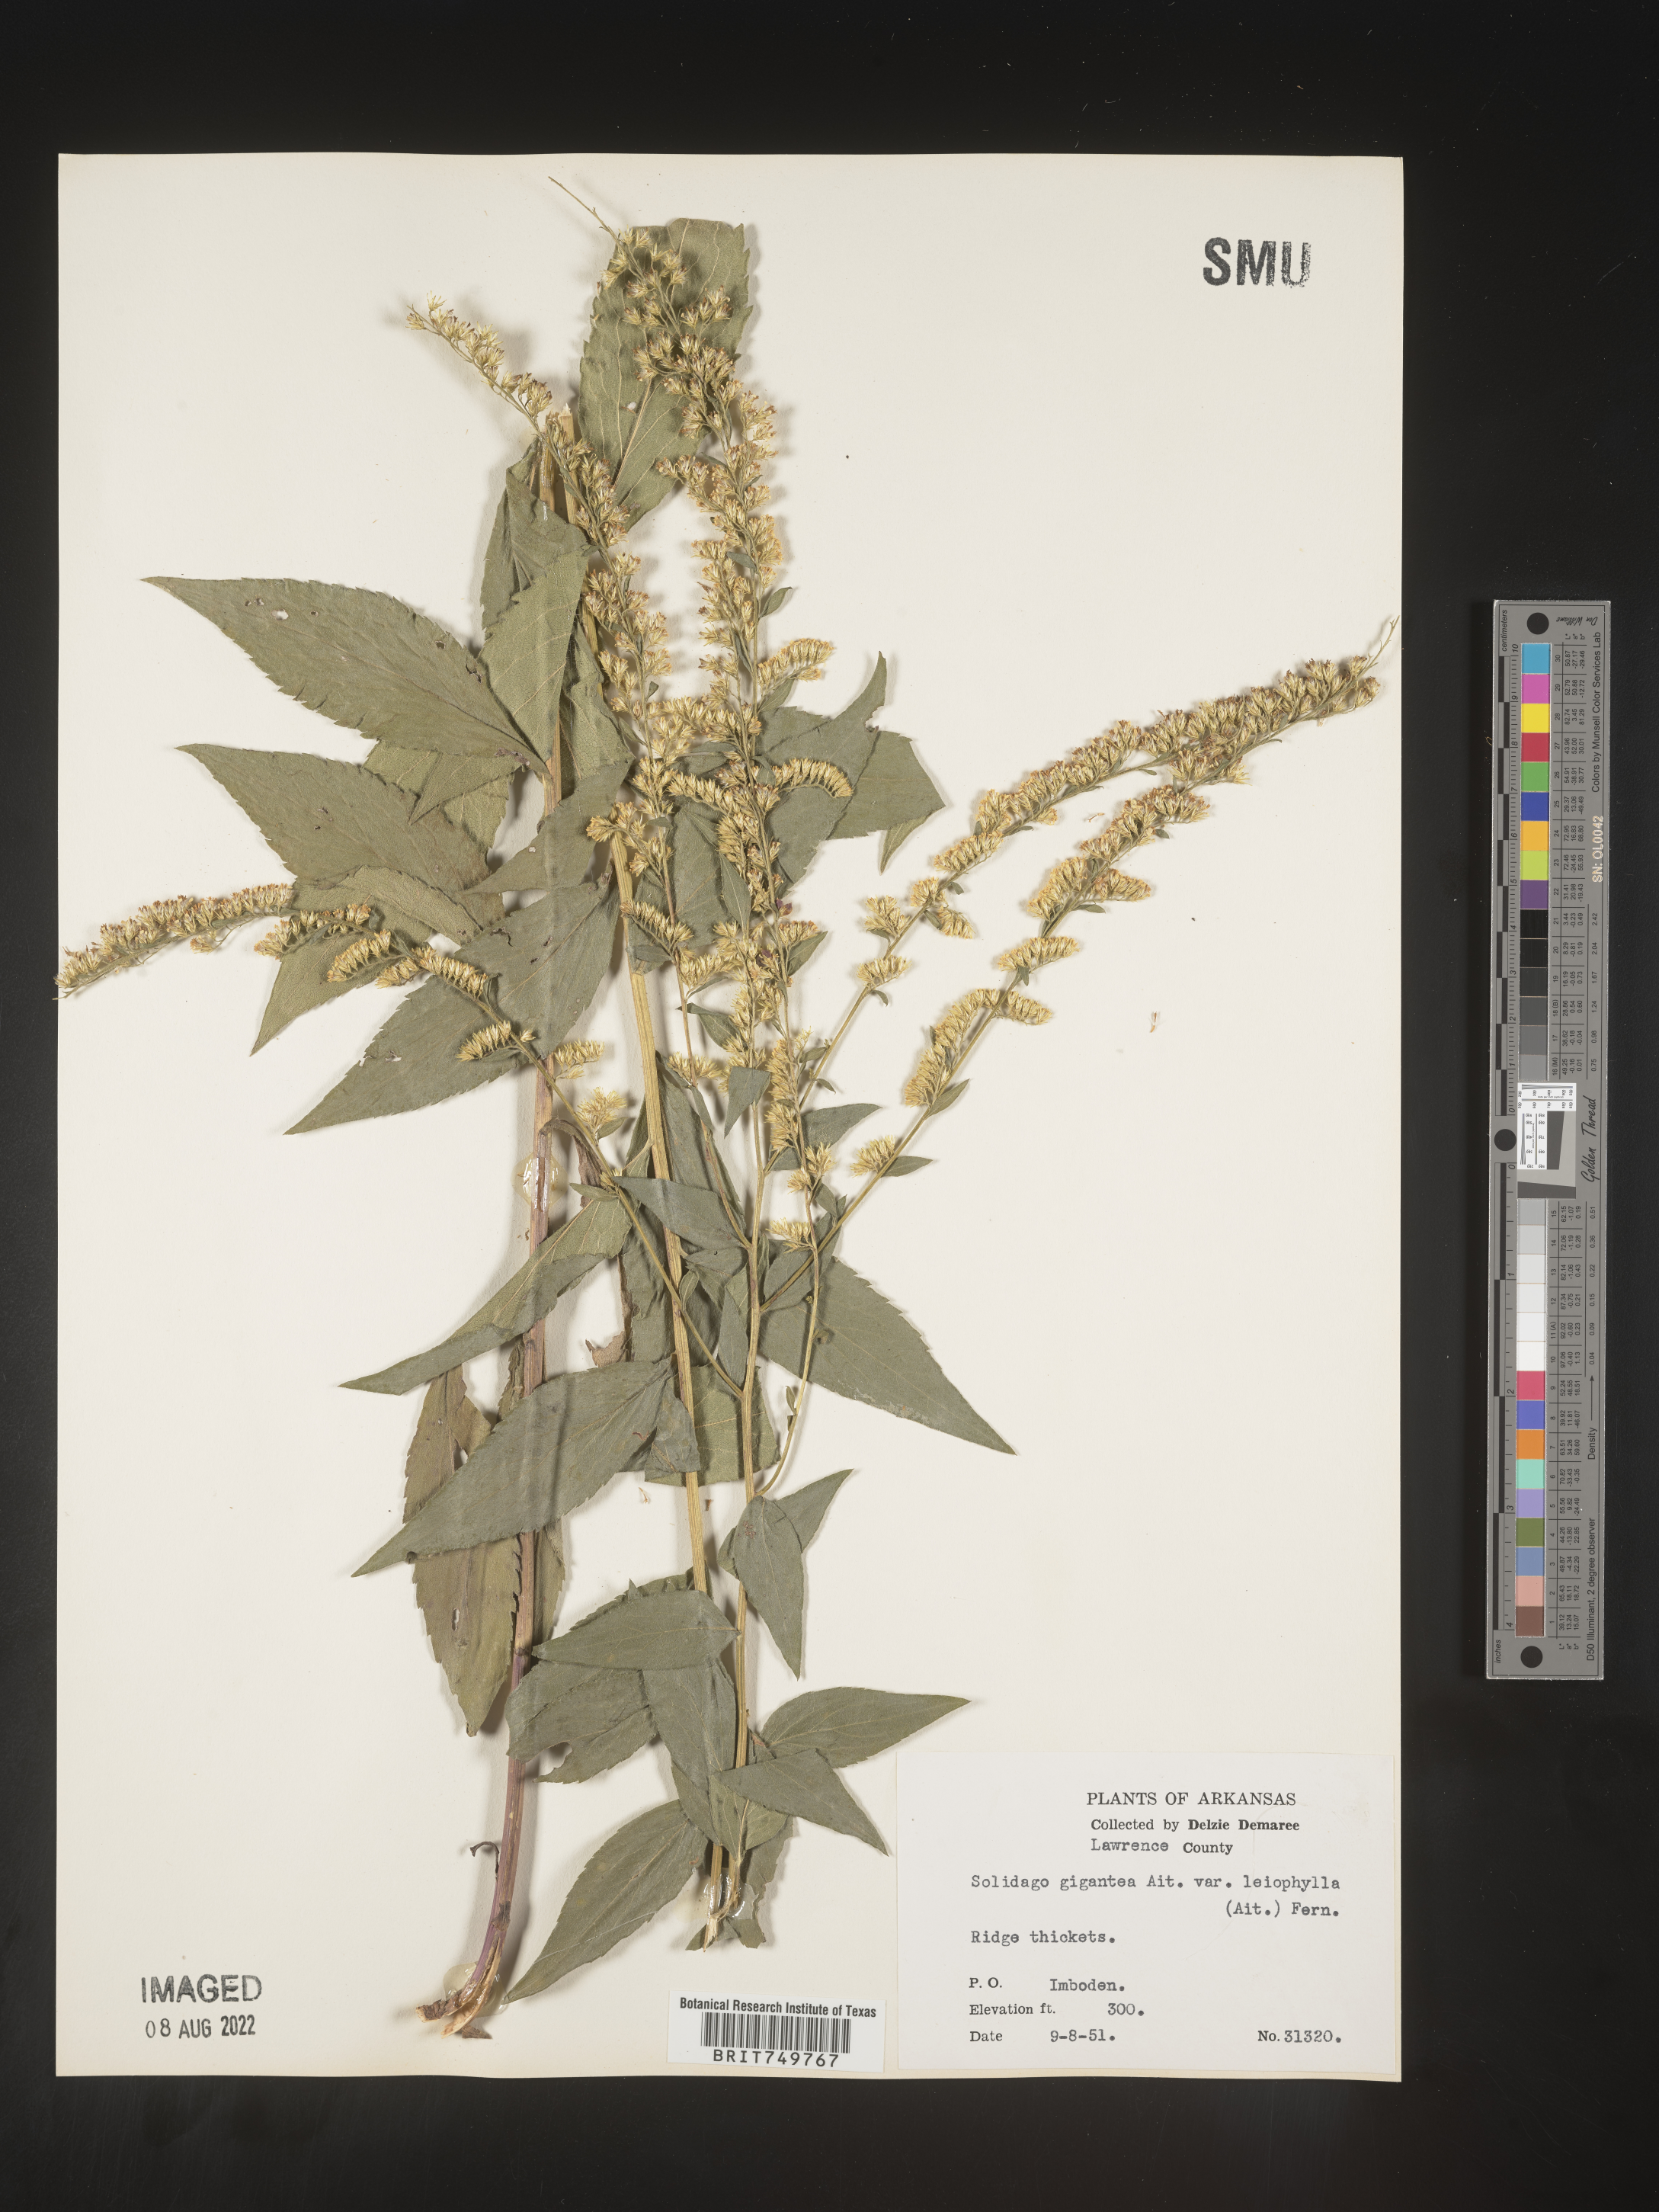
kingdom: Plantae
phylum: Tracheophyta
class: Magnoliopsida
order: Asterales
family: Asteraceae
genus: Solidago
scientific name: Solidago ulmifolia
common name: Elm-leaf goldenrod
